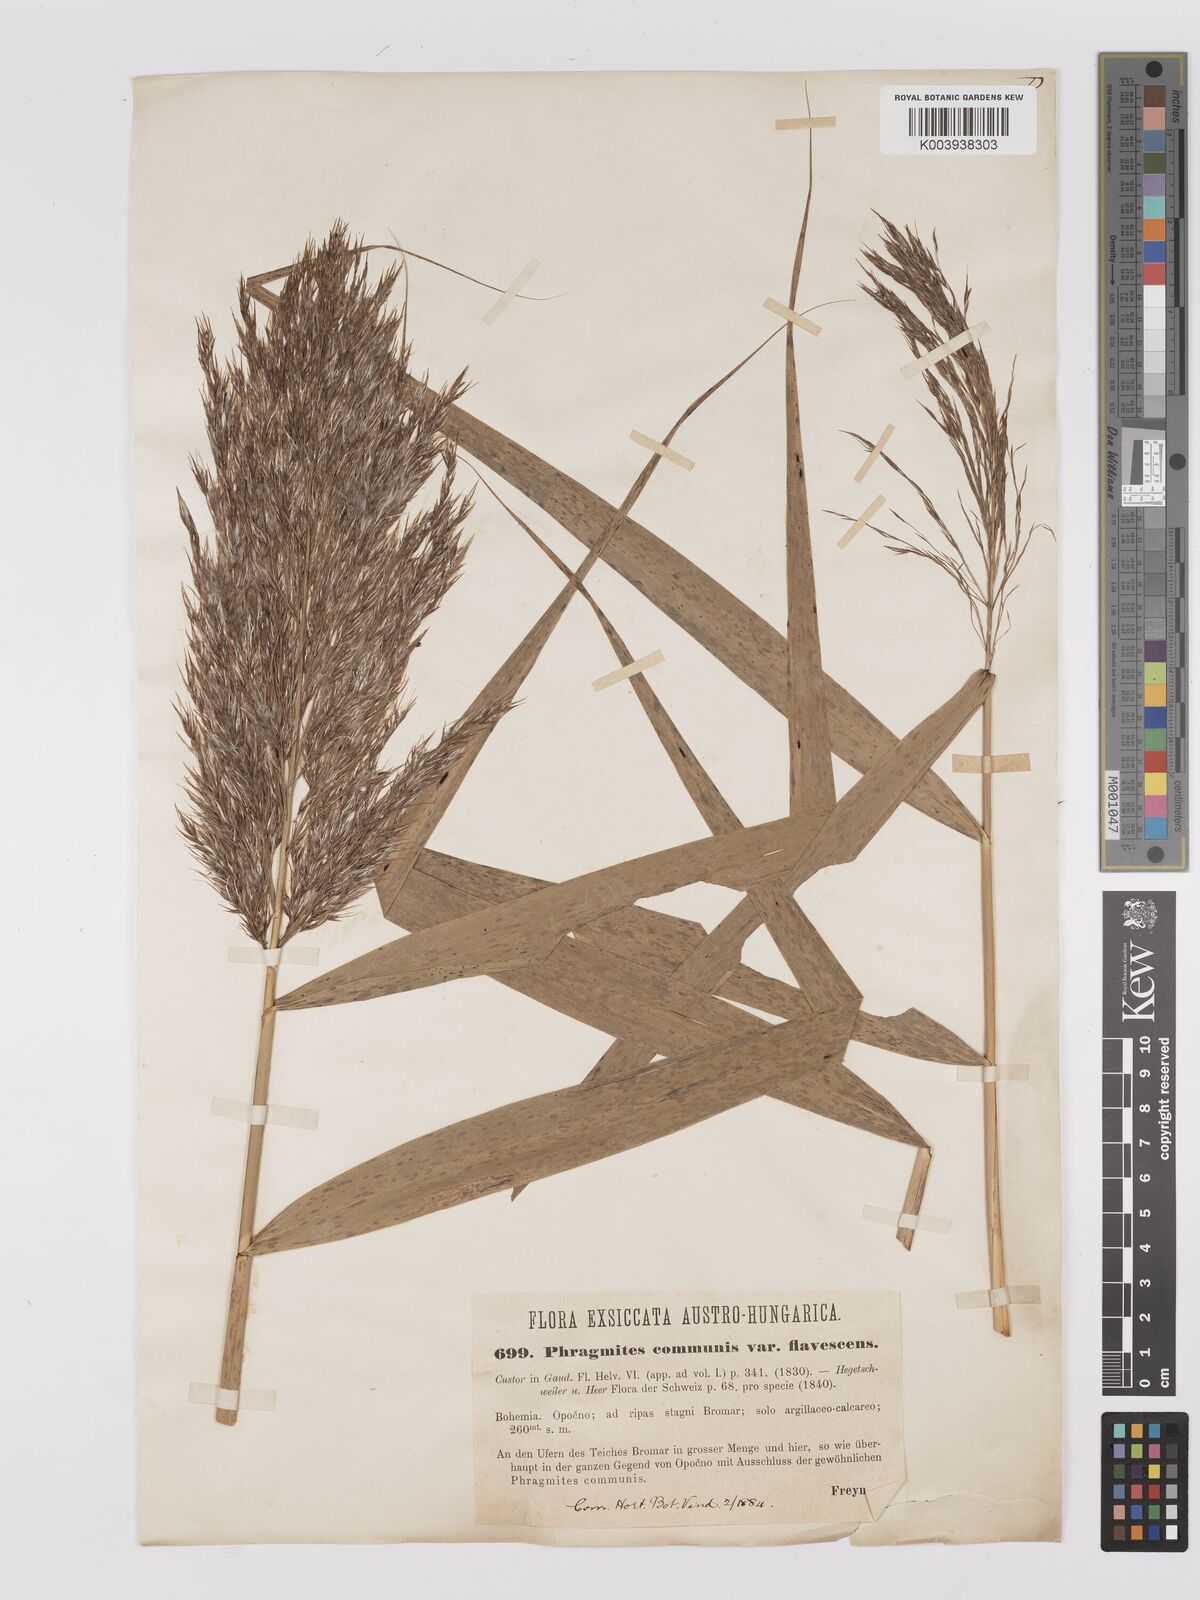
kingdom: Plantae
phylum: Tracheophyta
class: Liliopsida
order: Poales
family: Poaceae
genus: Phragmites
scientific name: Phragmites australis
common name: Common reed
